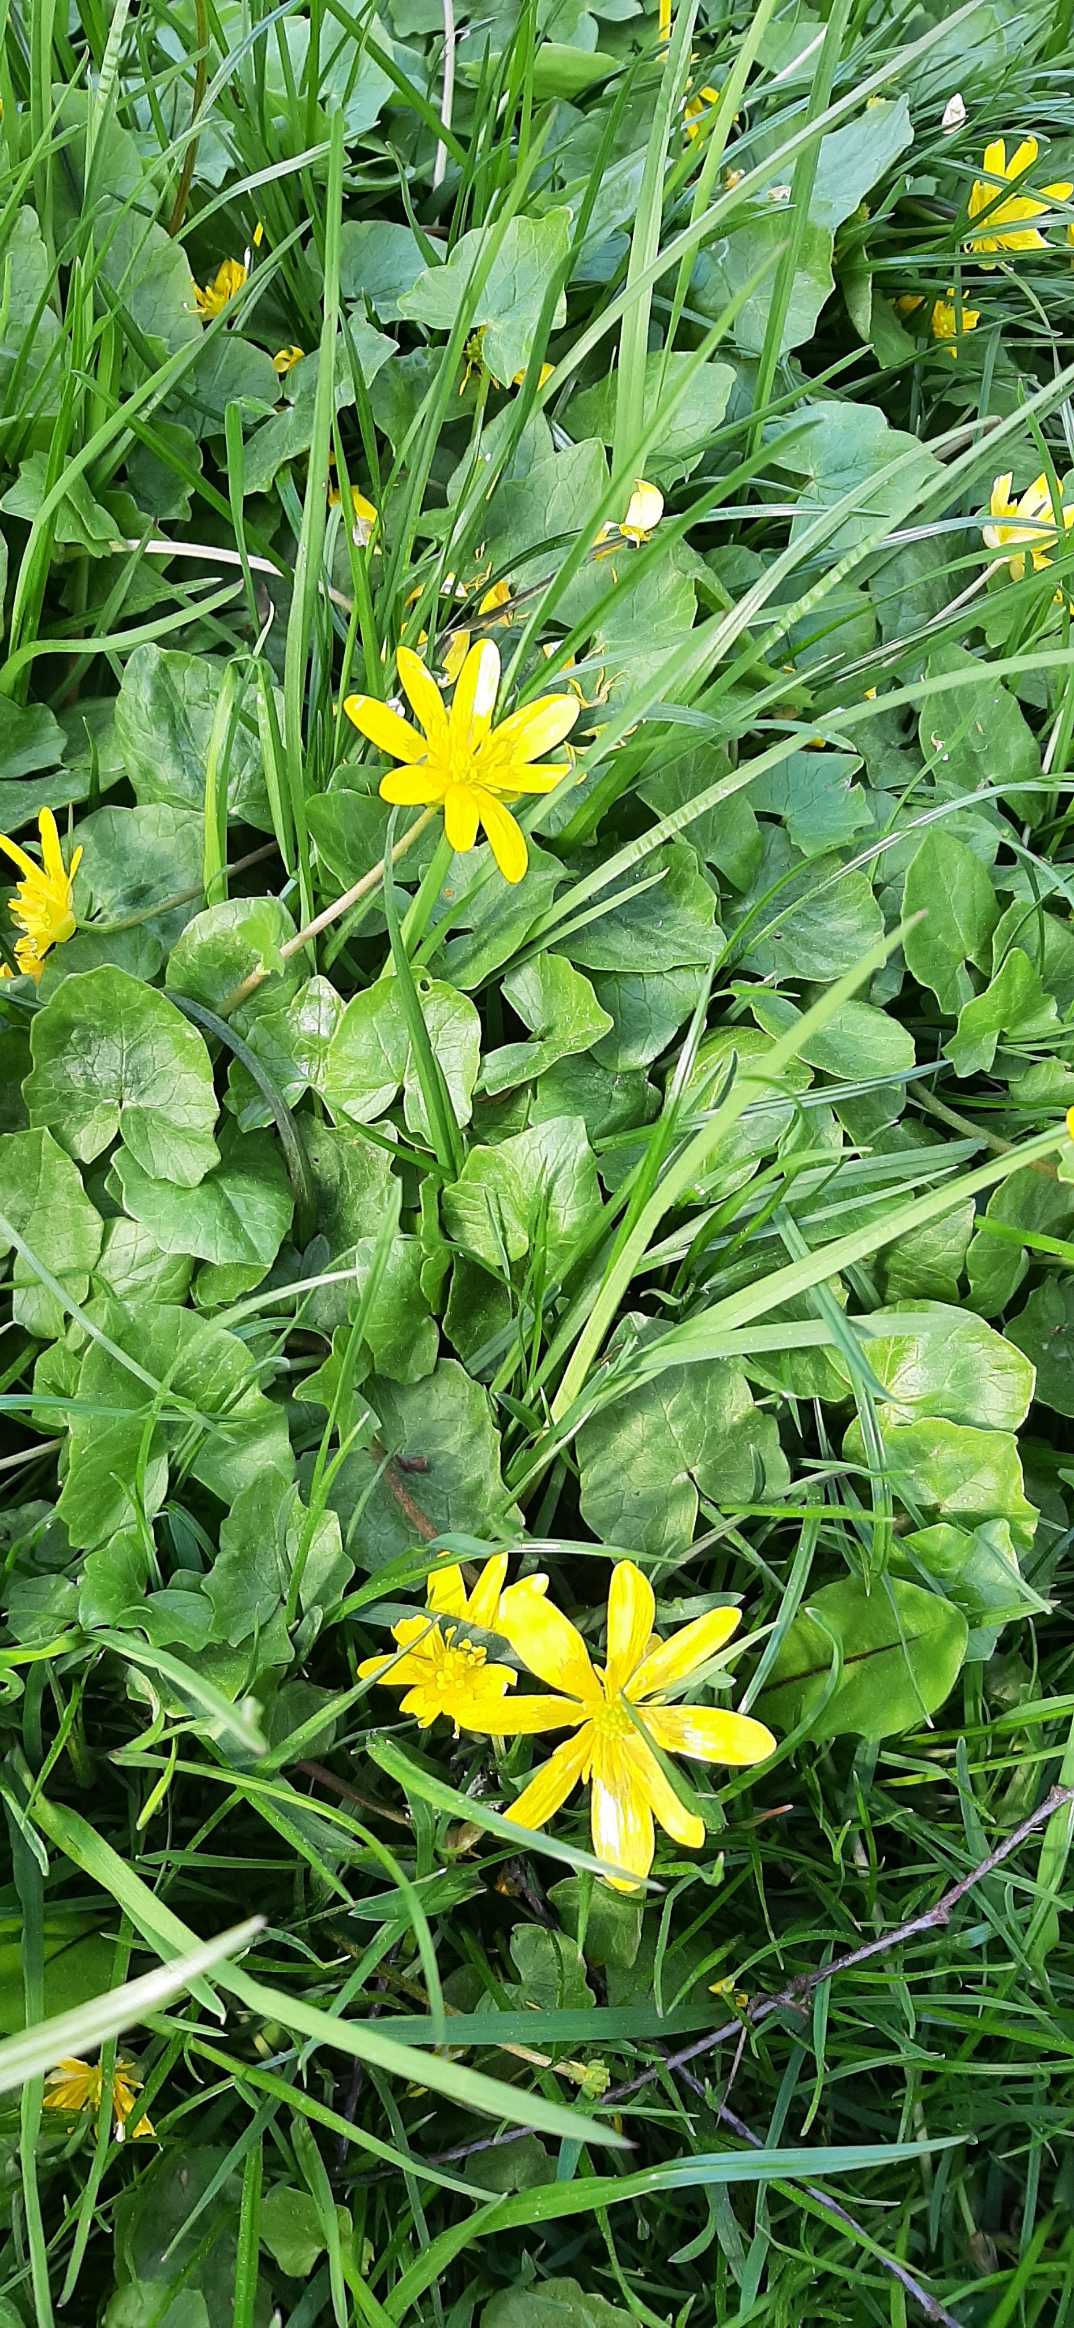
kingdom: Plantae
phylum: Tracheophyta
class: Magnoliopsida
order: Ranunculales
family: Ranunculaceae
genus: Ficaria
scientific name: Ficaria verna
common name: Vorterod
